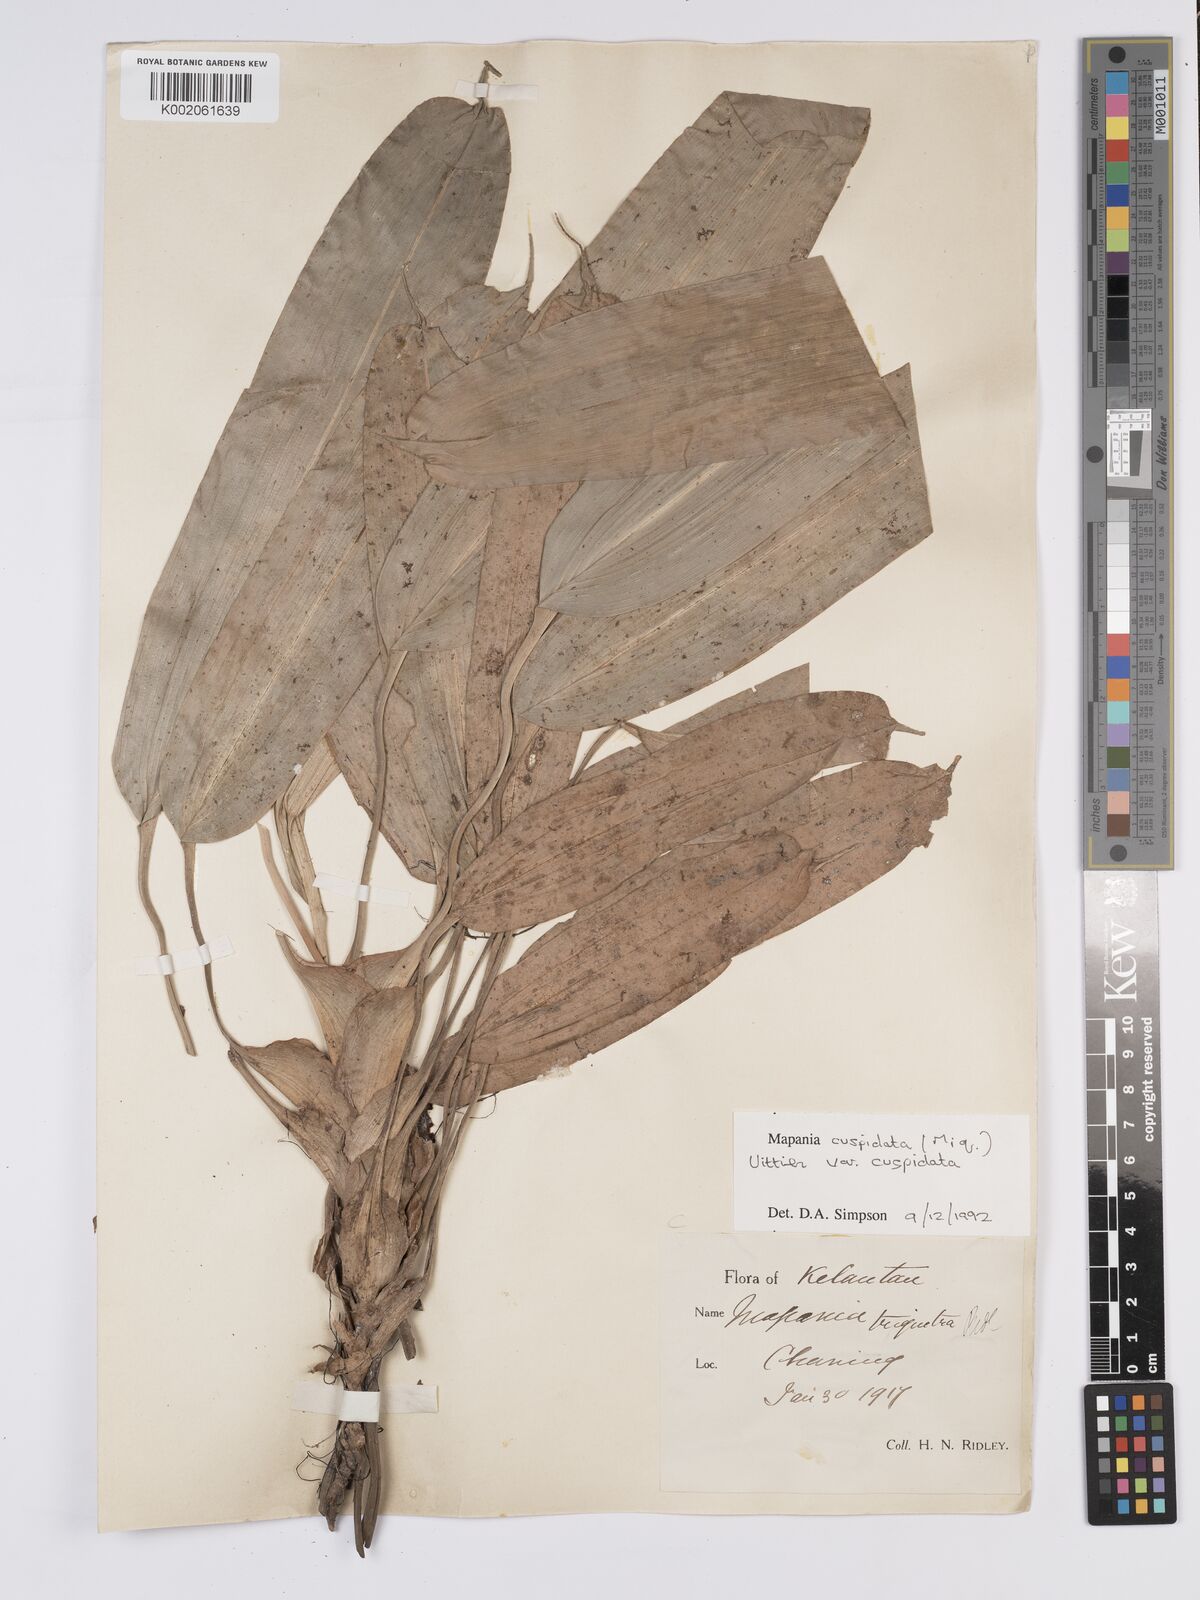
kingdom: Plantae
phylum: Tracheophyta
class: Liliopsida
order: Poales
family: Cyperaceae
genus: Mapania
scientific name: Mapania cuspidata
